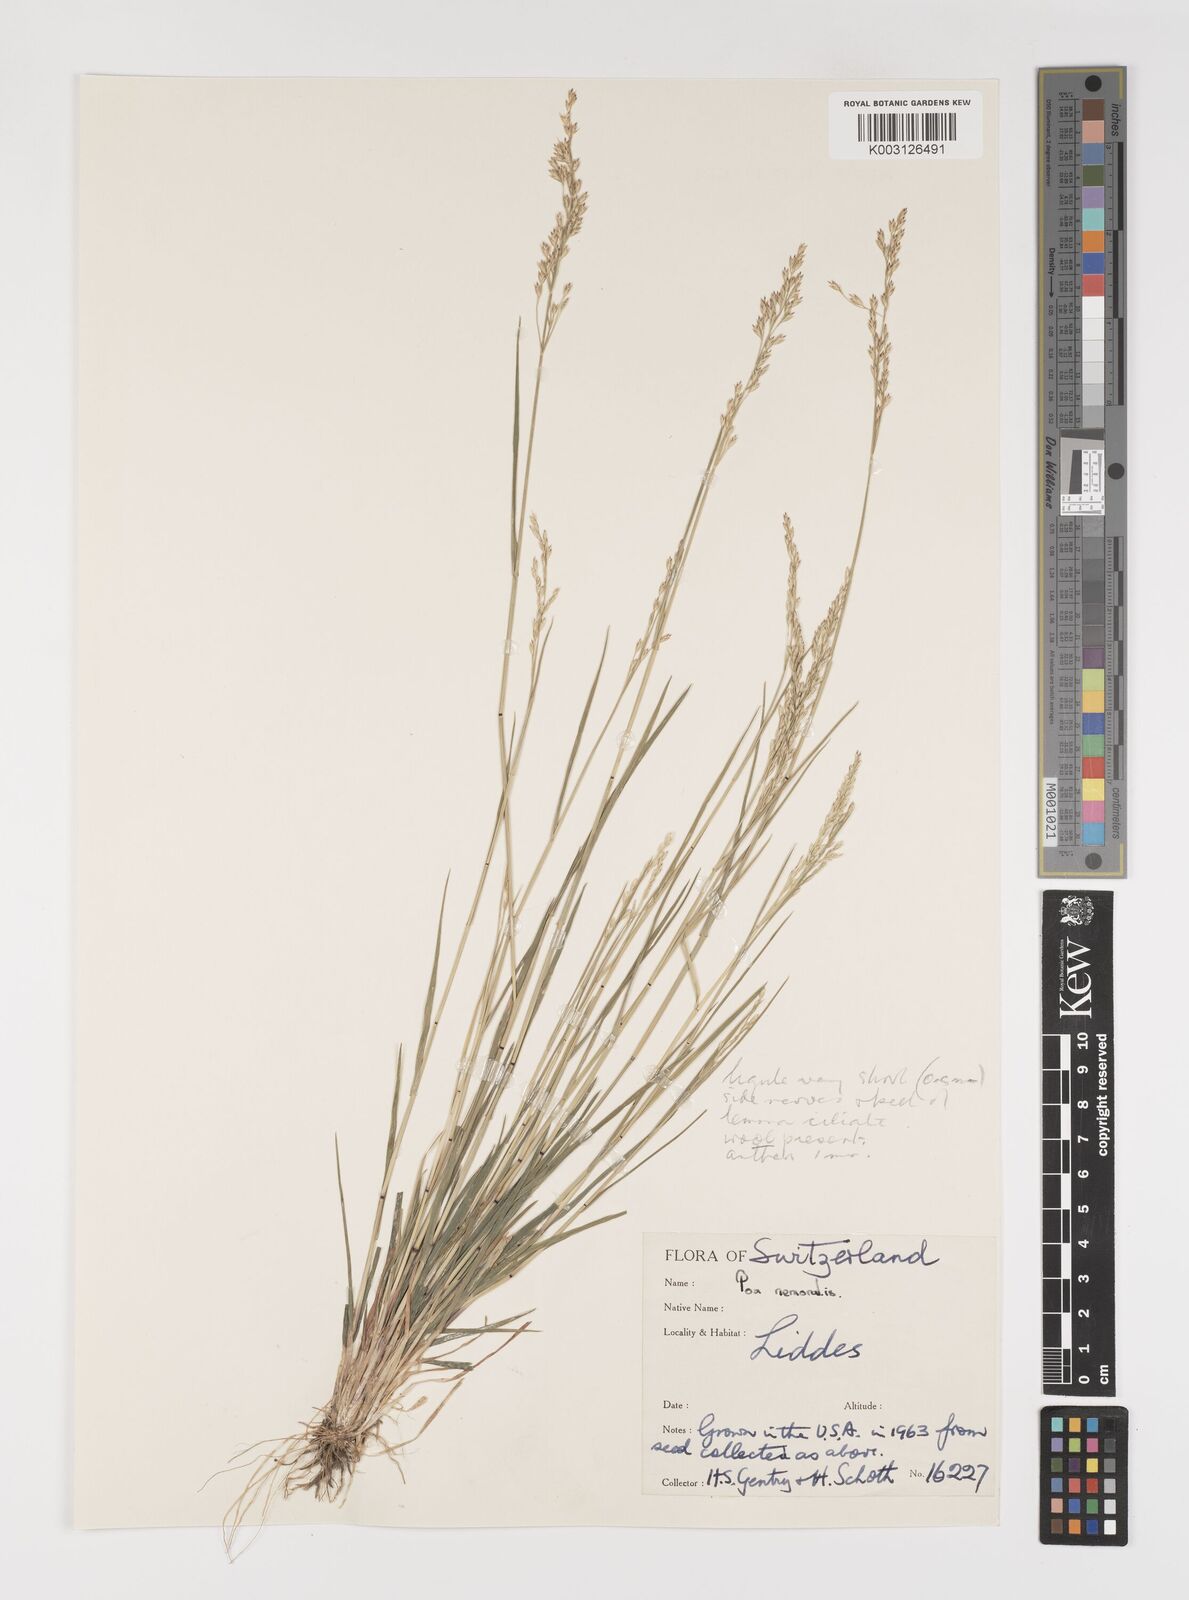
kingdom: Plantae
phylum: Tracheophyta
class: Liliopsida
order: Poales
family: Poaceae
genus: Poa
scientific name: Poa nemoralis
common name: Wood bluegrass
